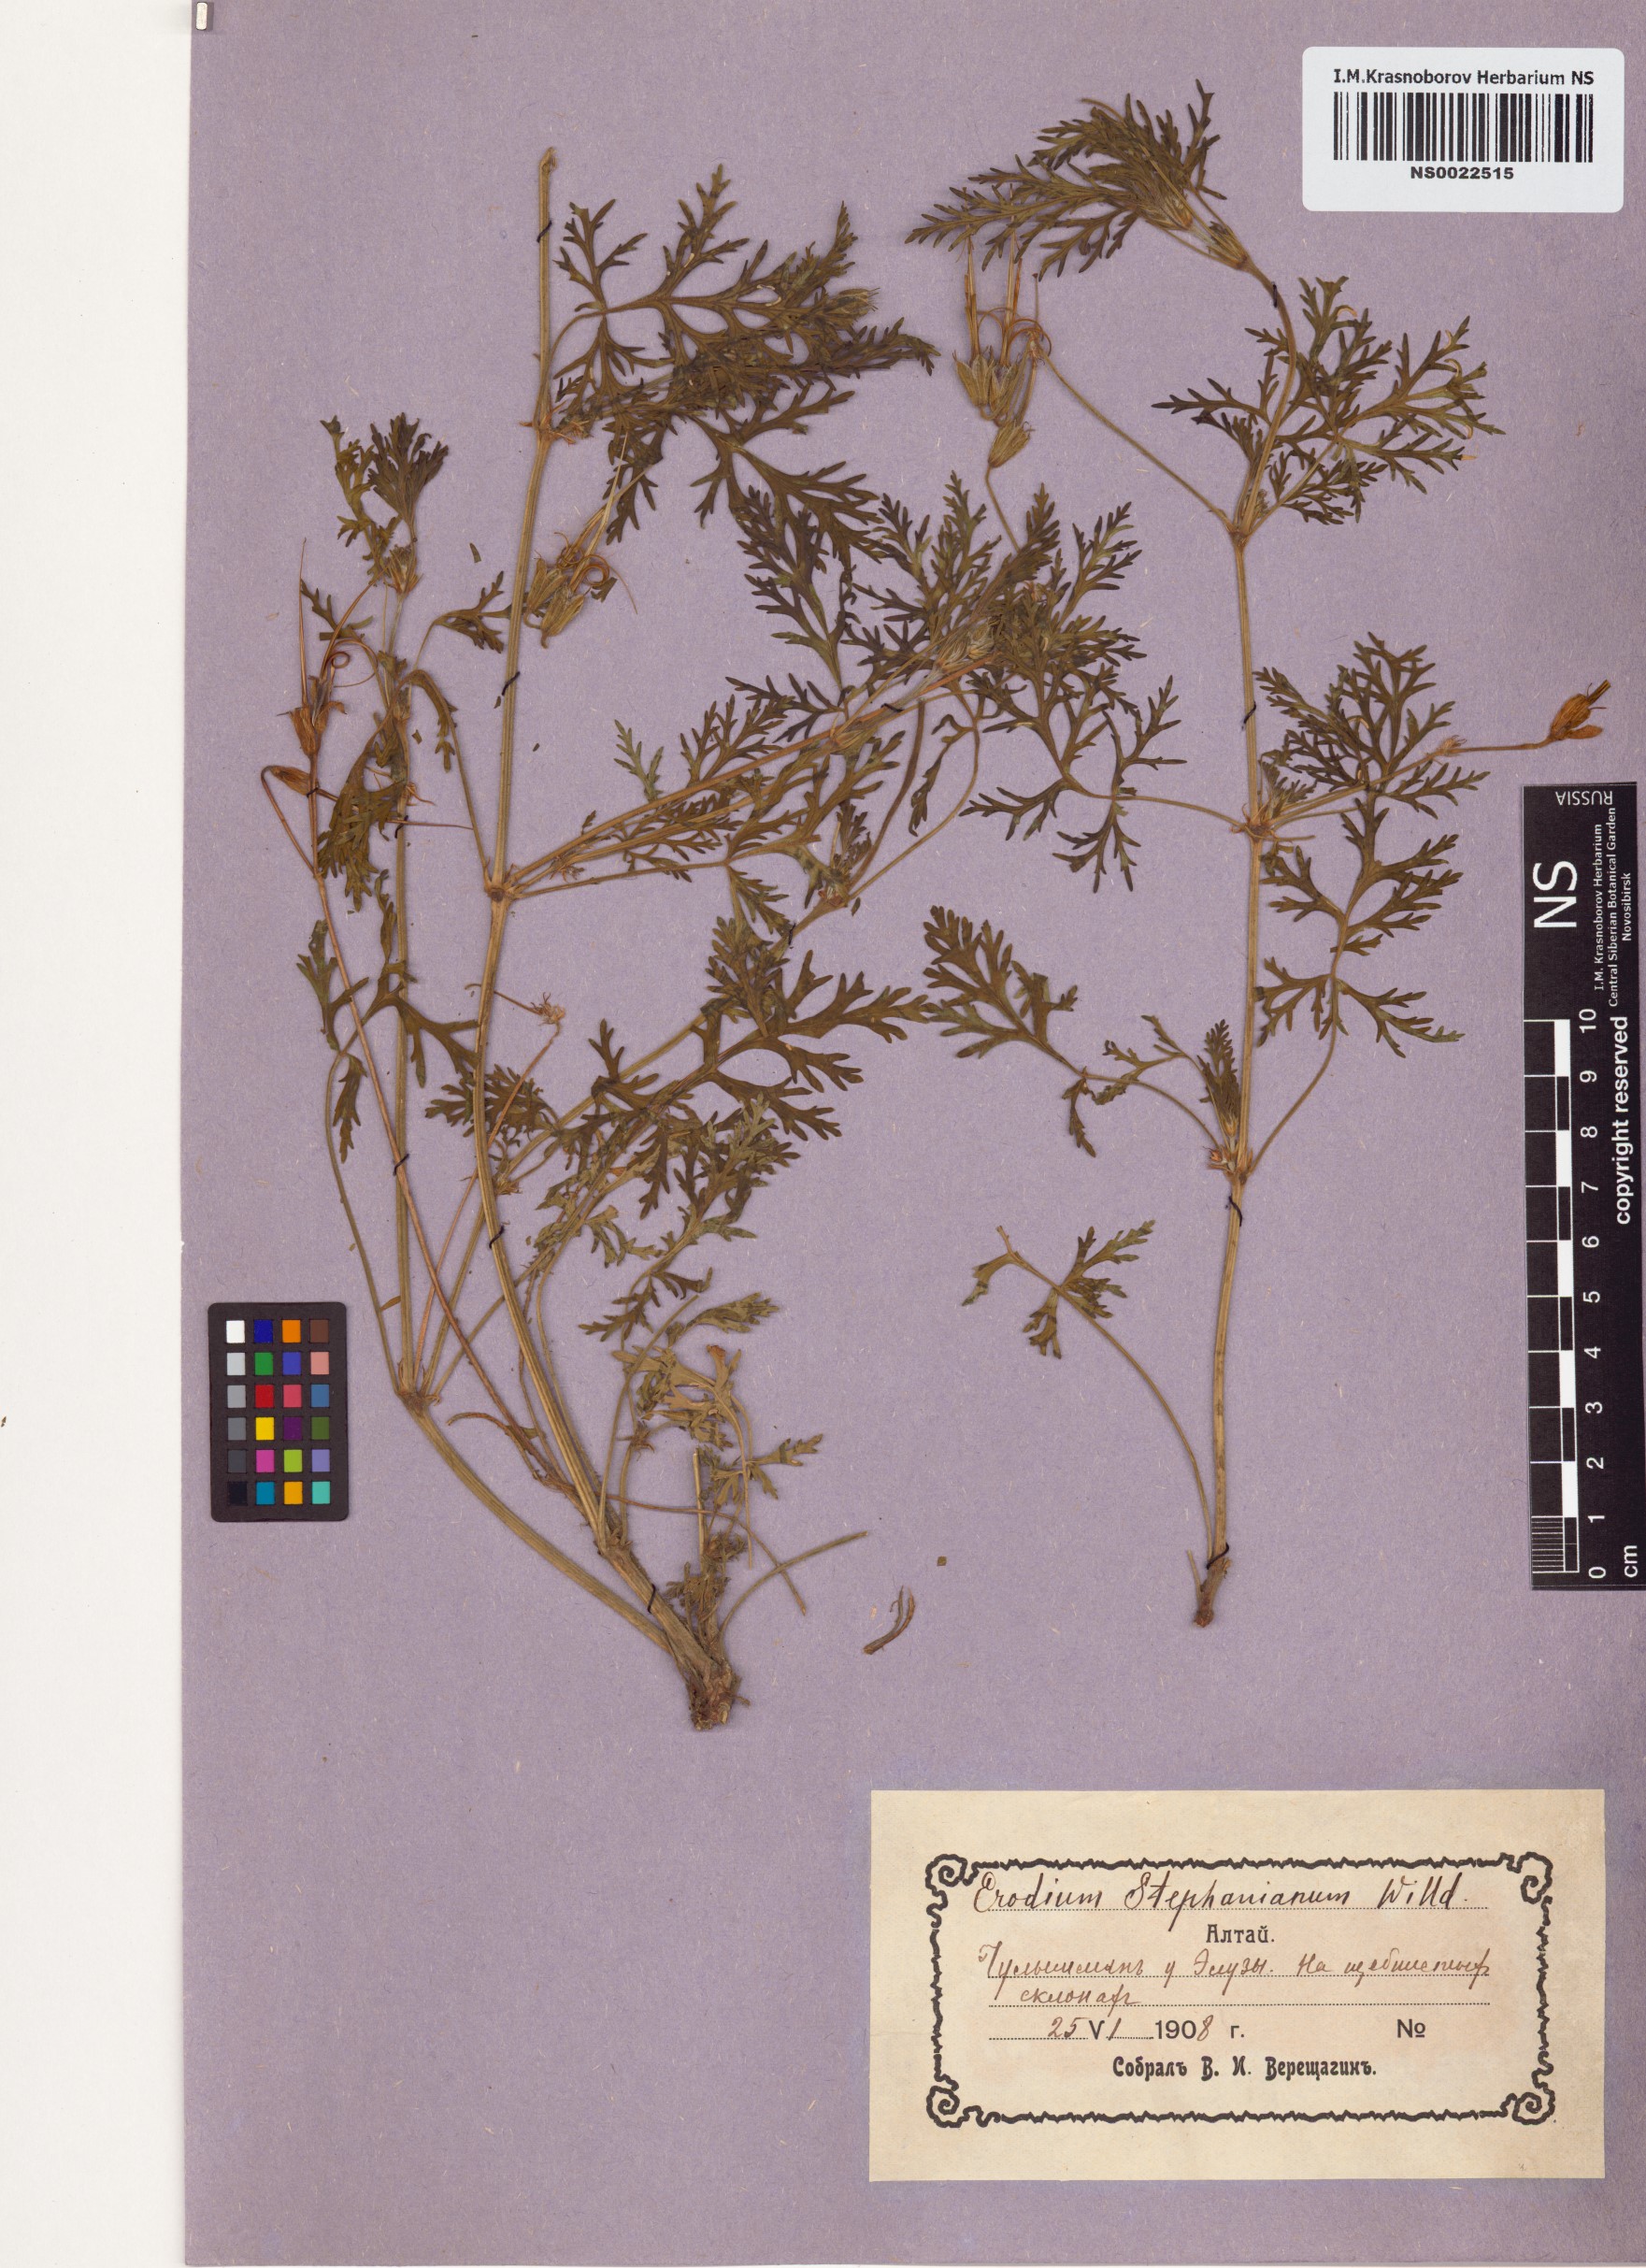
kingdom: Plantae
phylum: Tracheophyta
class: Magnoliopsida
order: Geraniales
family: Geraniaceae
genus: Erodium
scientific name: Erodium stephanianum
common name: Stephen's stork's bill
